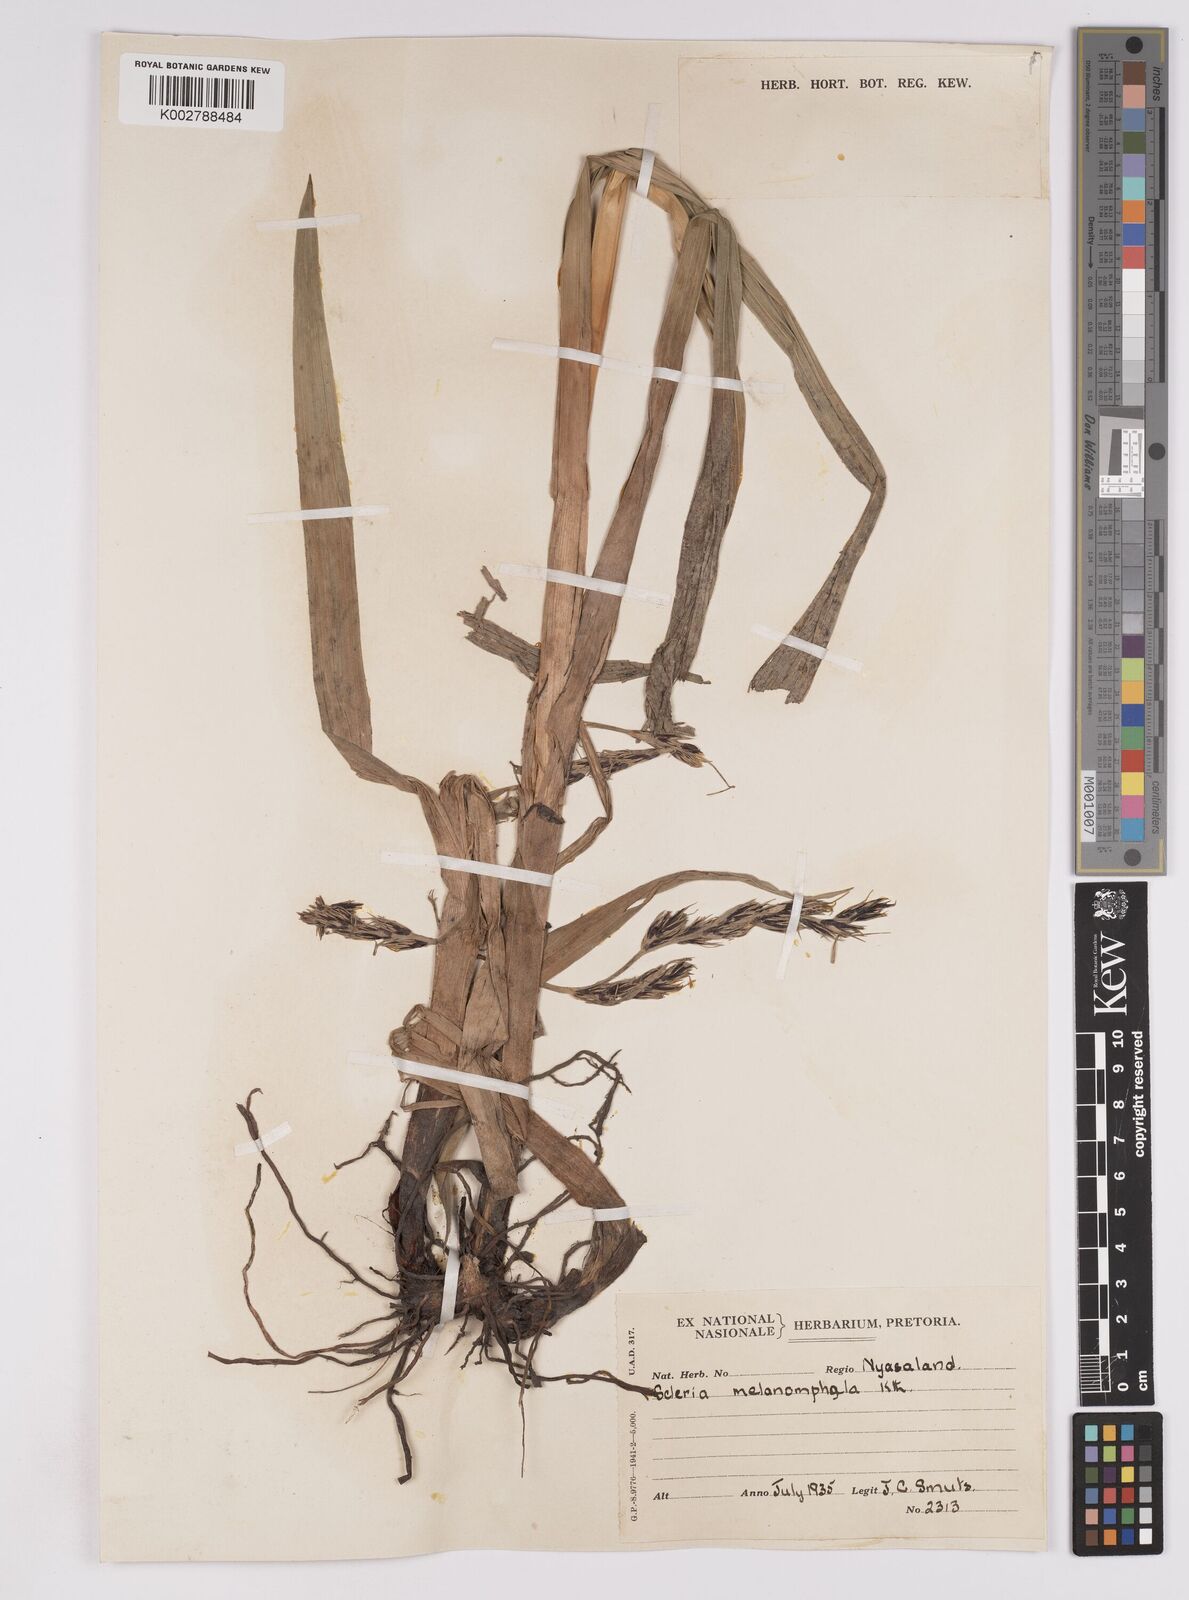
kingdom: Plantae
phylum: Tracheophyta
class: Liliopsida
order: Poales
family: Cyperaceae
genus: Scleria
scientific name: Scleria melanomphala
